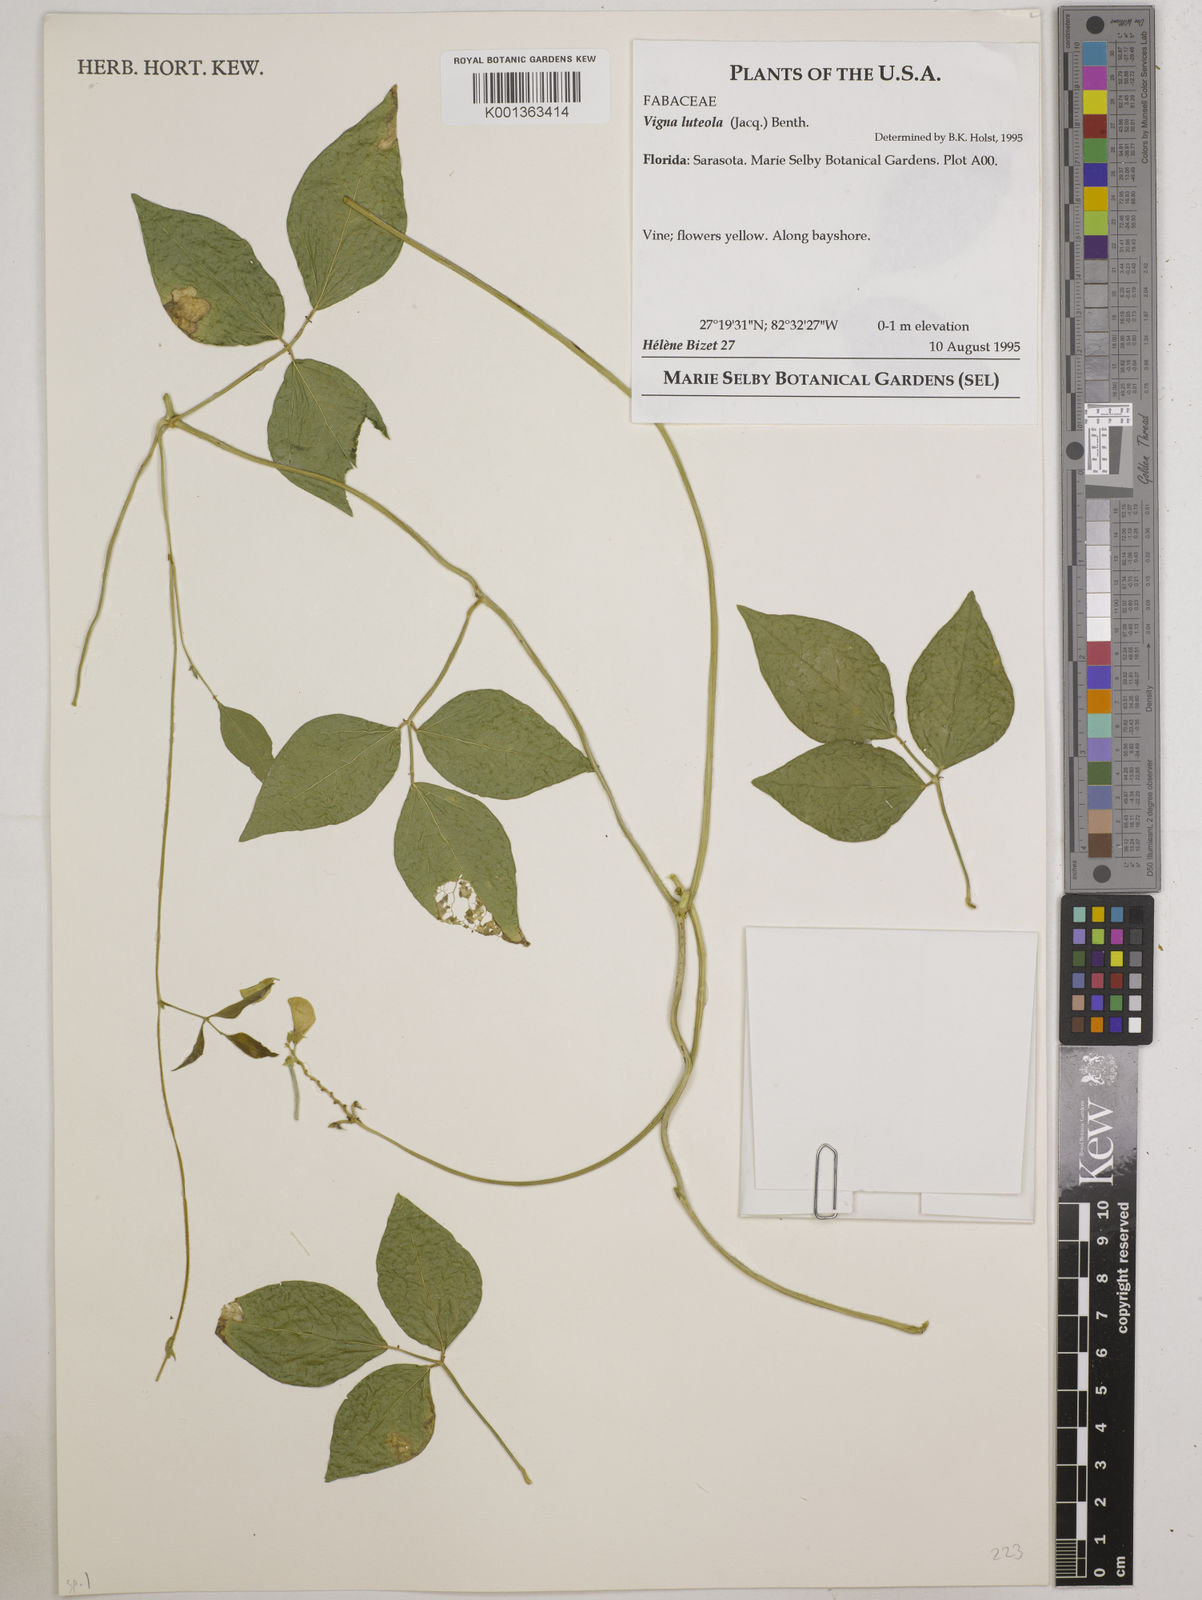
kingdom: Plantae
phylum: Tracheophyta
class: Magnoliopsida
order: Fabales
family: Fabaceae
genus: Vigna
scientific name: Vigna luteola
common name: Hairypod cowpea
